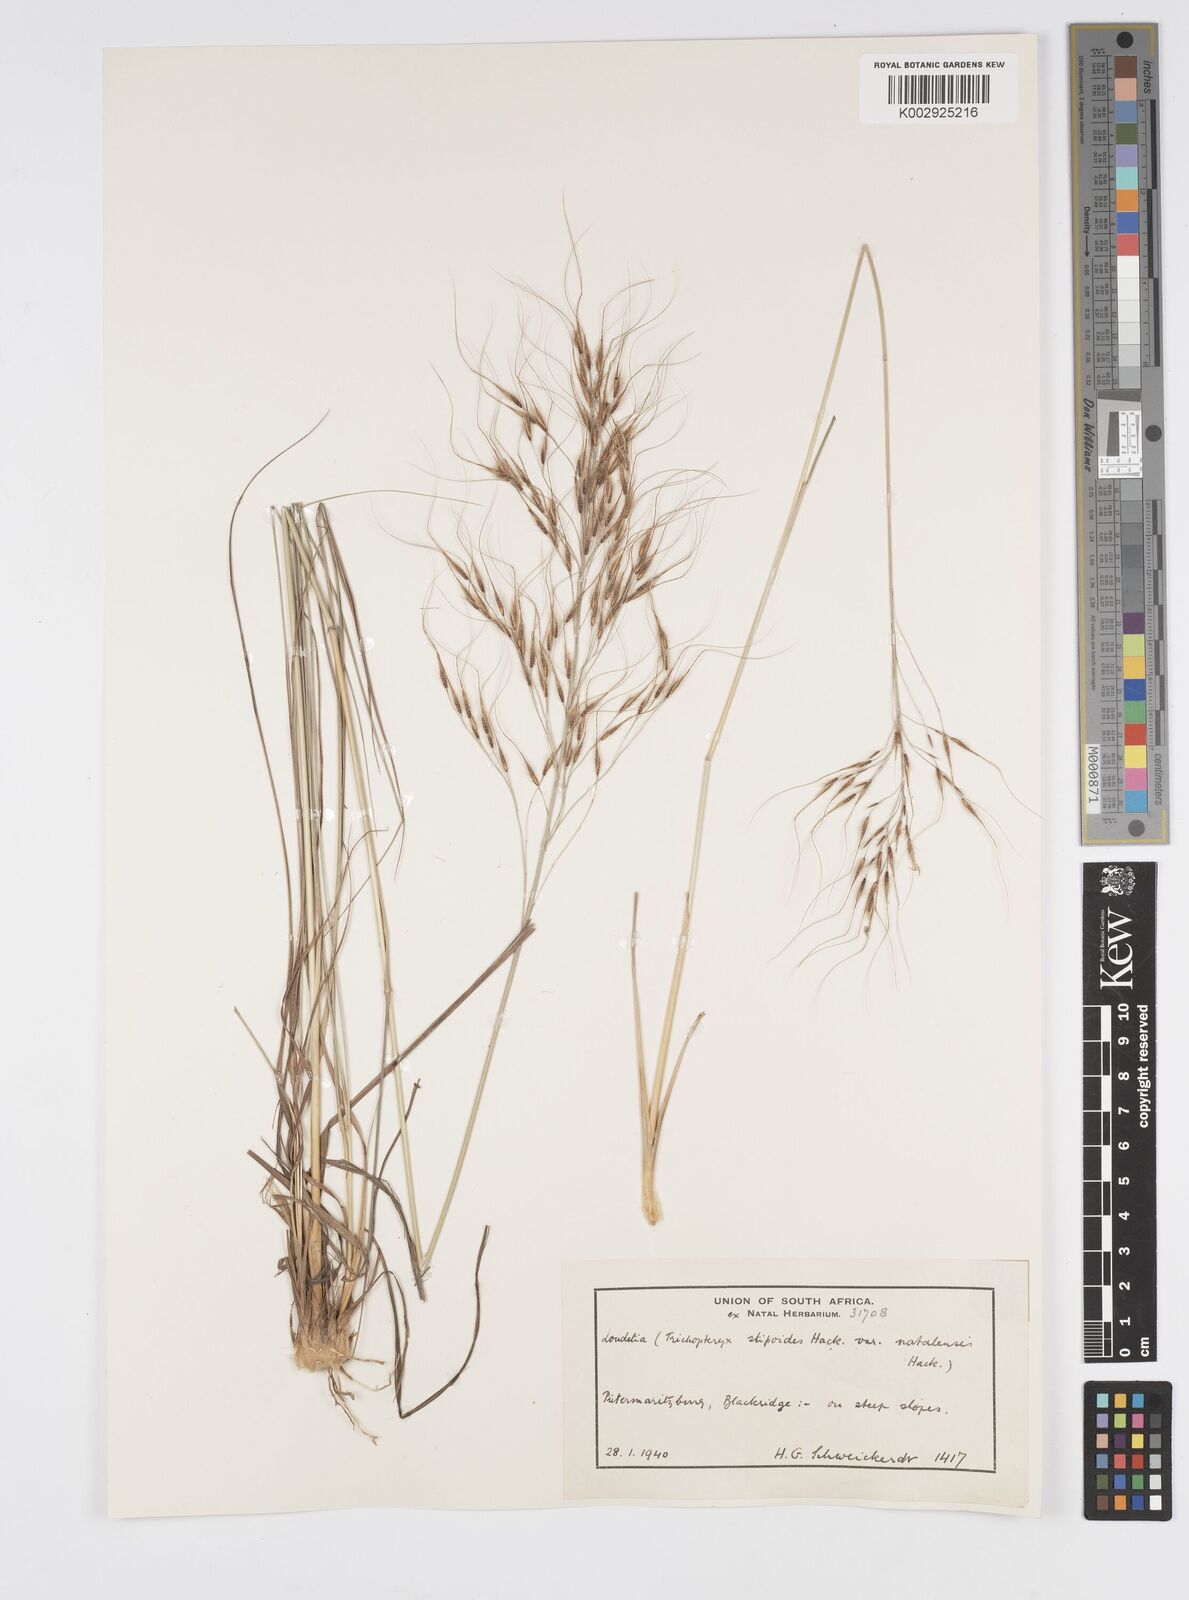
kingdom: Plantae
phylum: Tracheophyta
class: Liliopsida
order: Poales
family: Poaceae
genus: Loudetia
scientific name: Loudetia simplex
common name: Common russet grass
